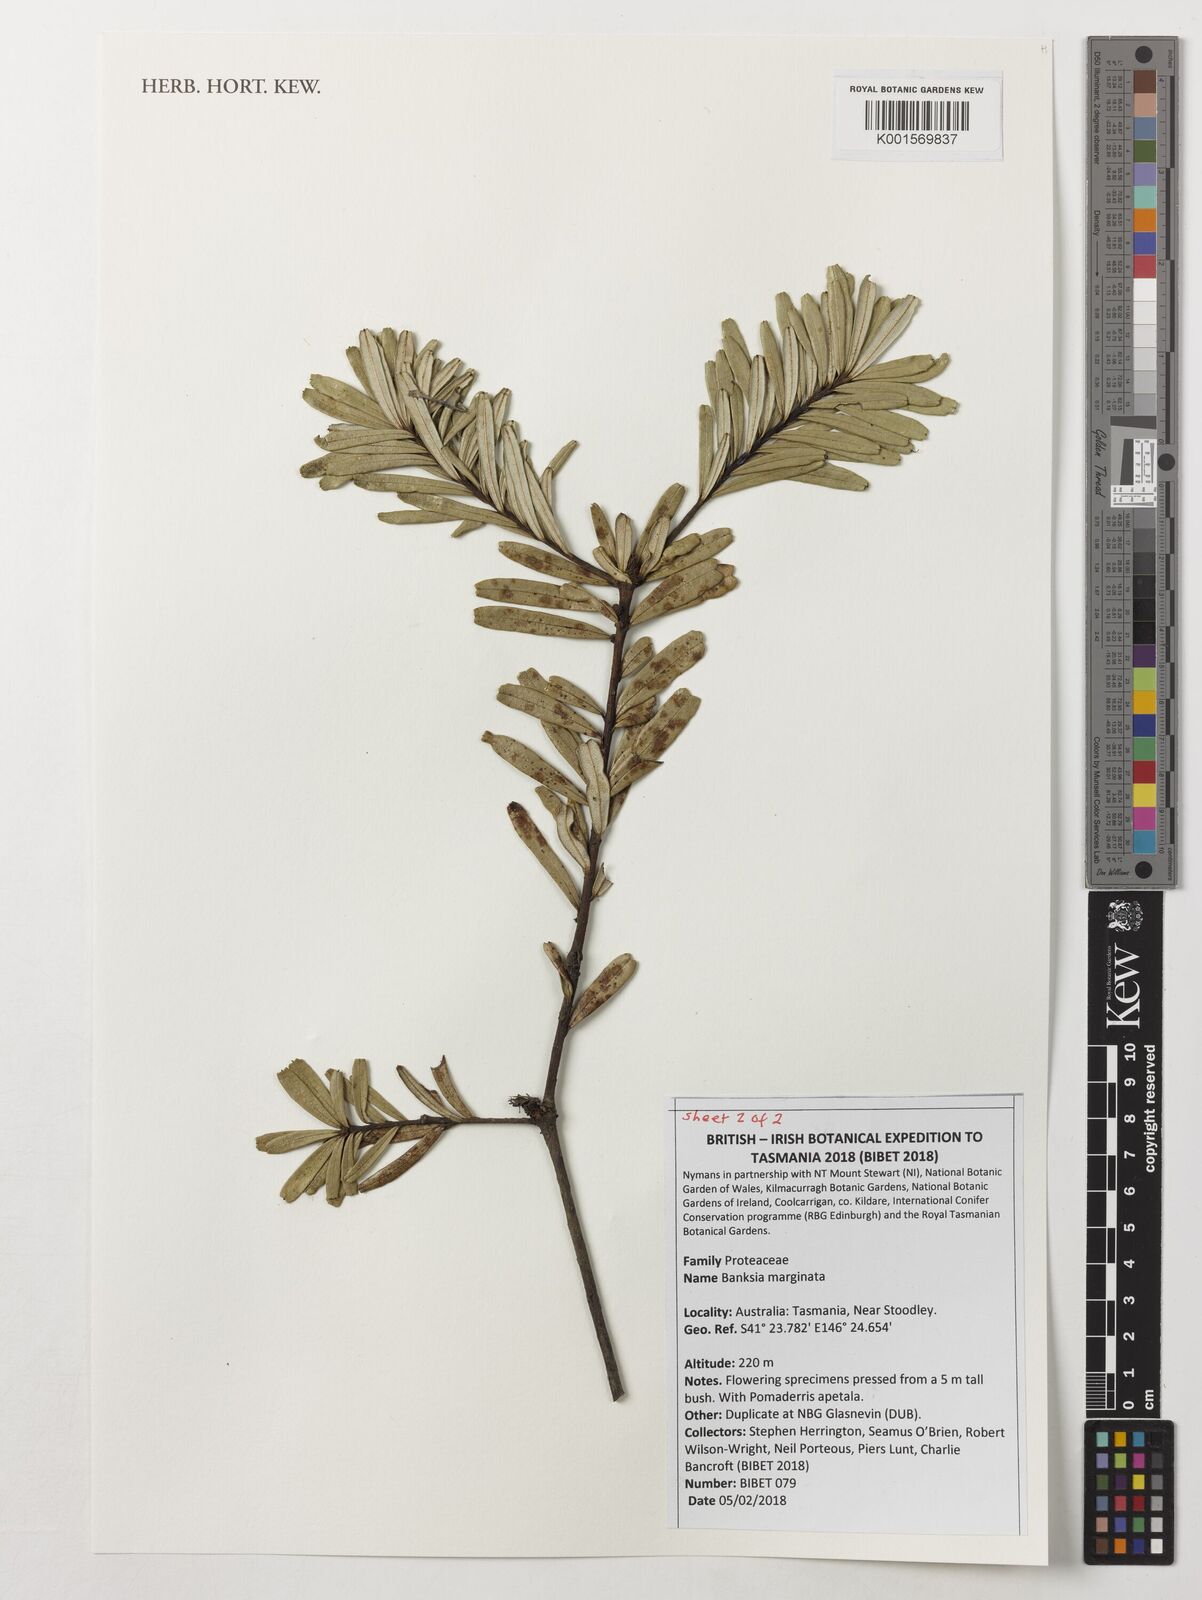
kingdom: Plantae
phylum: Tracheophyta
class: Magnoliopsida
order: Proteales
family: Proteaceae
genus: Banksia
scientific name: Banksia marginata
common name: Silver banksia
